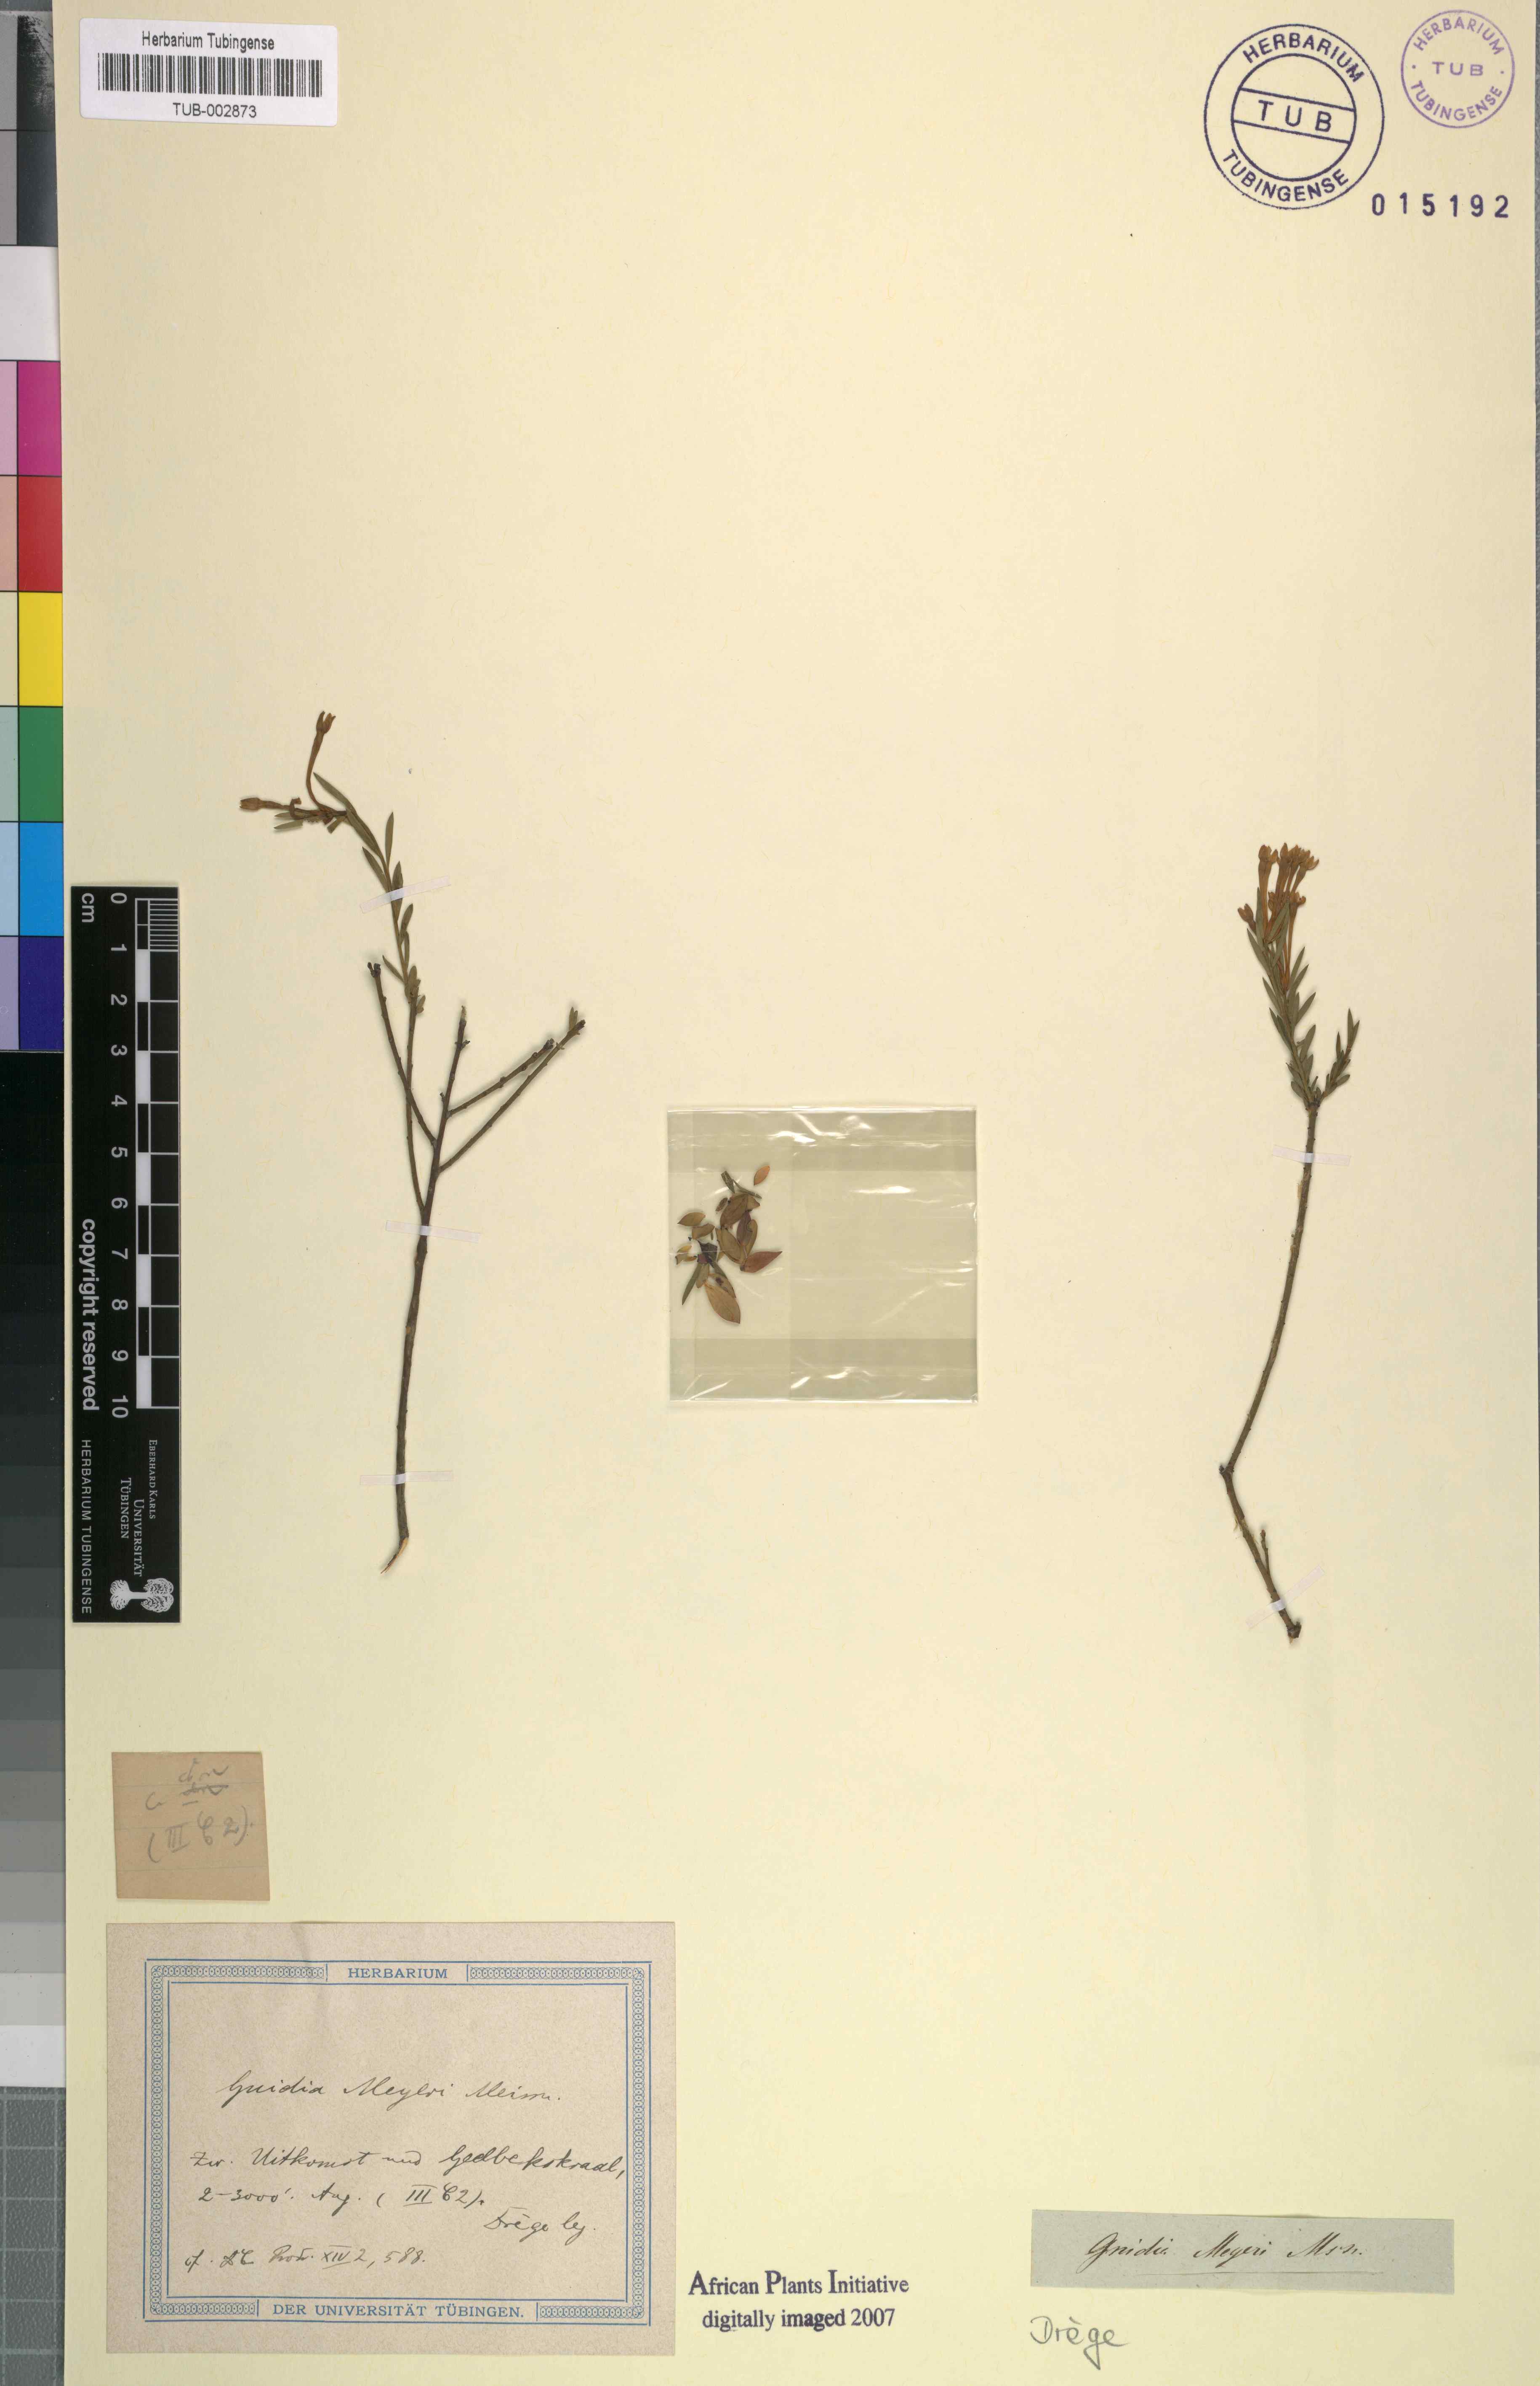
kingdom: Plantae
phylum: Tracheophyta
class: Magnoliopsida
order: Malvales
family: Thymelaeaceae
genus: Gnidia
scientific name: Gnidia meyeri
